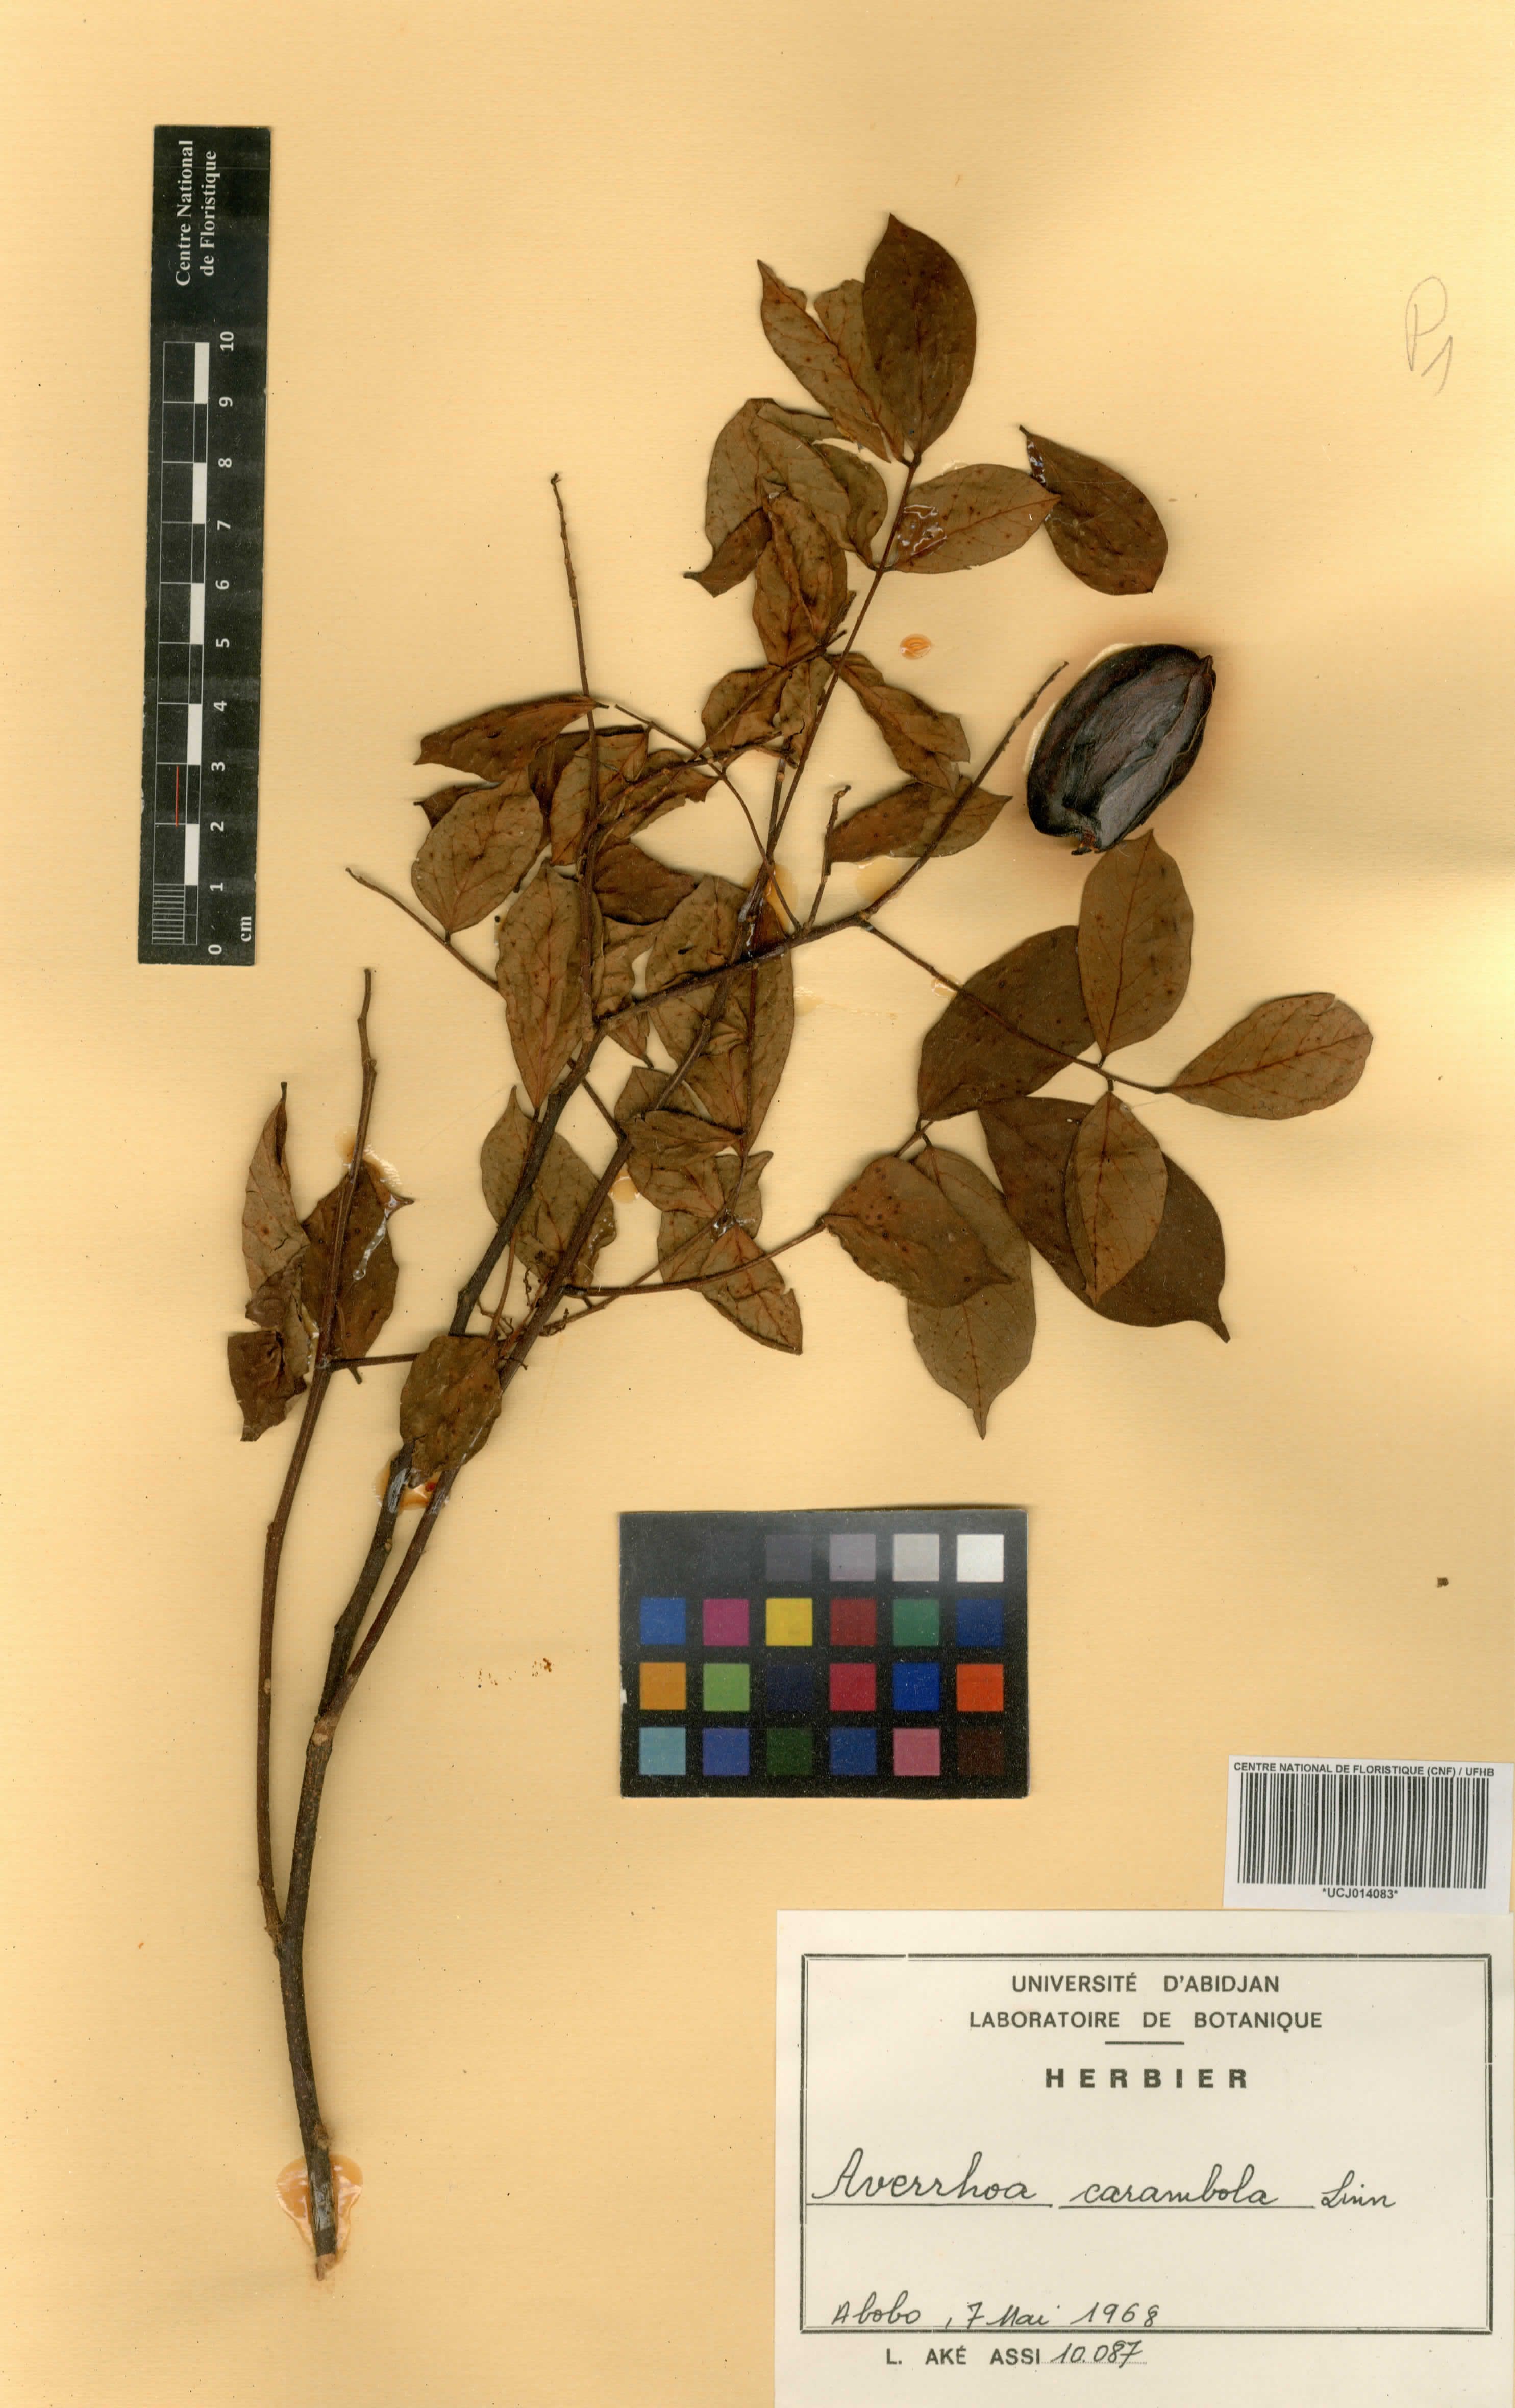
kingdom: Plantae
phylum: Tracheophyta
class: Magnoliopsida
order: Oxalidales
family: Oxalidaceae
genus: Averrhoa
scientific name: Averrhoa carambola
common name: Blimbing
